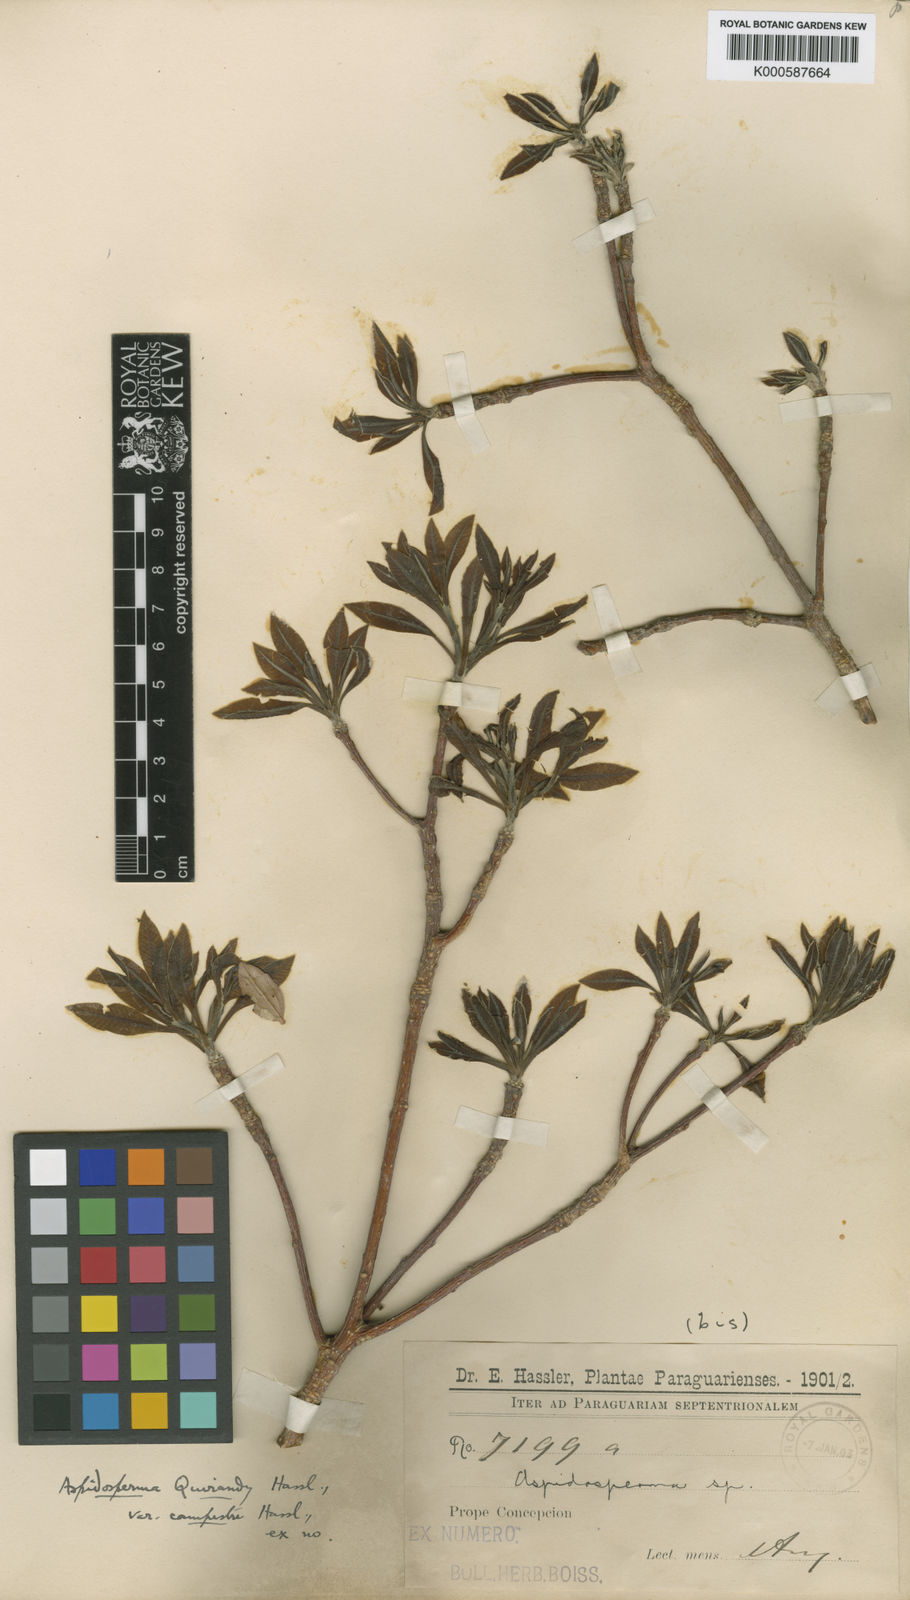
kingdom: Plantae
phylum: Tracheophyta
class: Magnoliopsida
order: Gentianales
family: Apocynaceae
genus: Aspidosperma
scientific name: Aspidosperma
